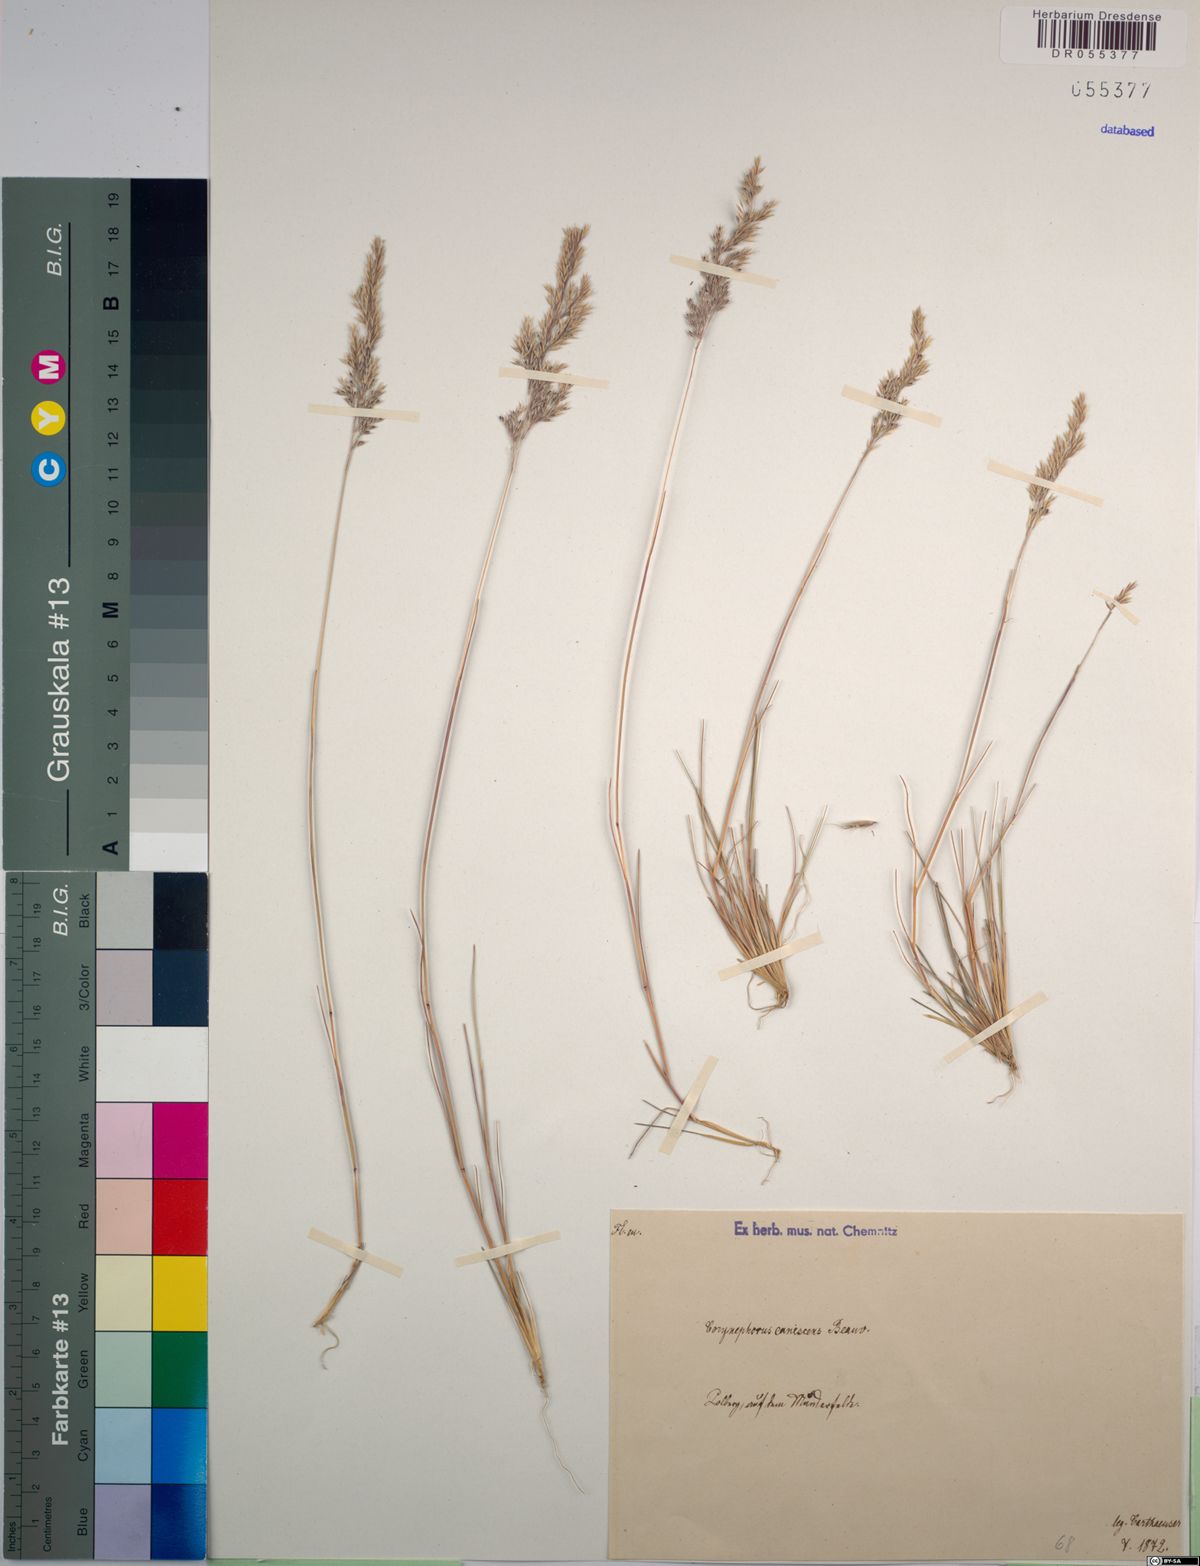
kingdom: Plantae
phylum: Tracheophyta
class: Liliopsida
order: Poales
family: Poaceae
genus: Corynephorus
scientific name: Corynephorus canescens
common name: Grey hair-grass
